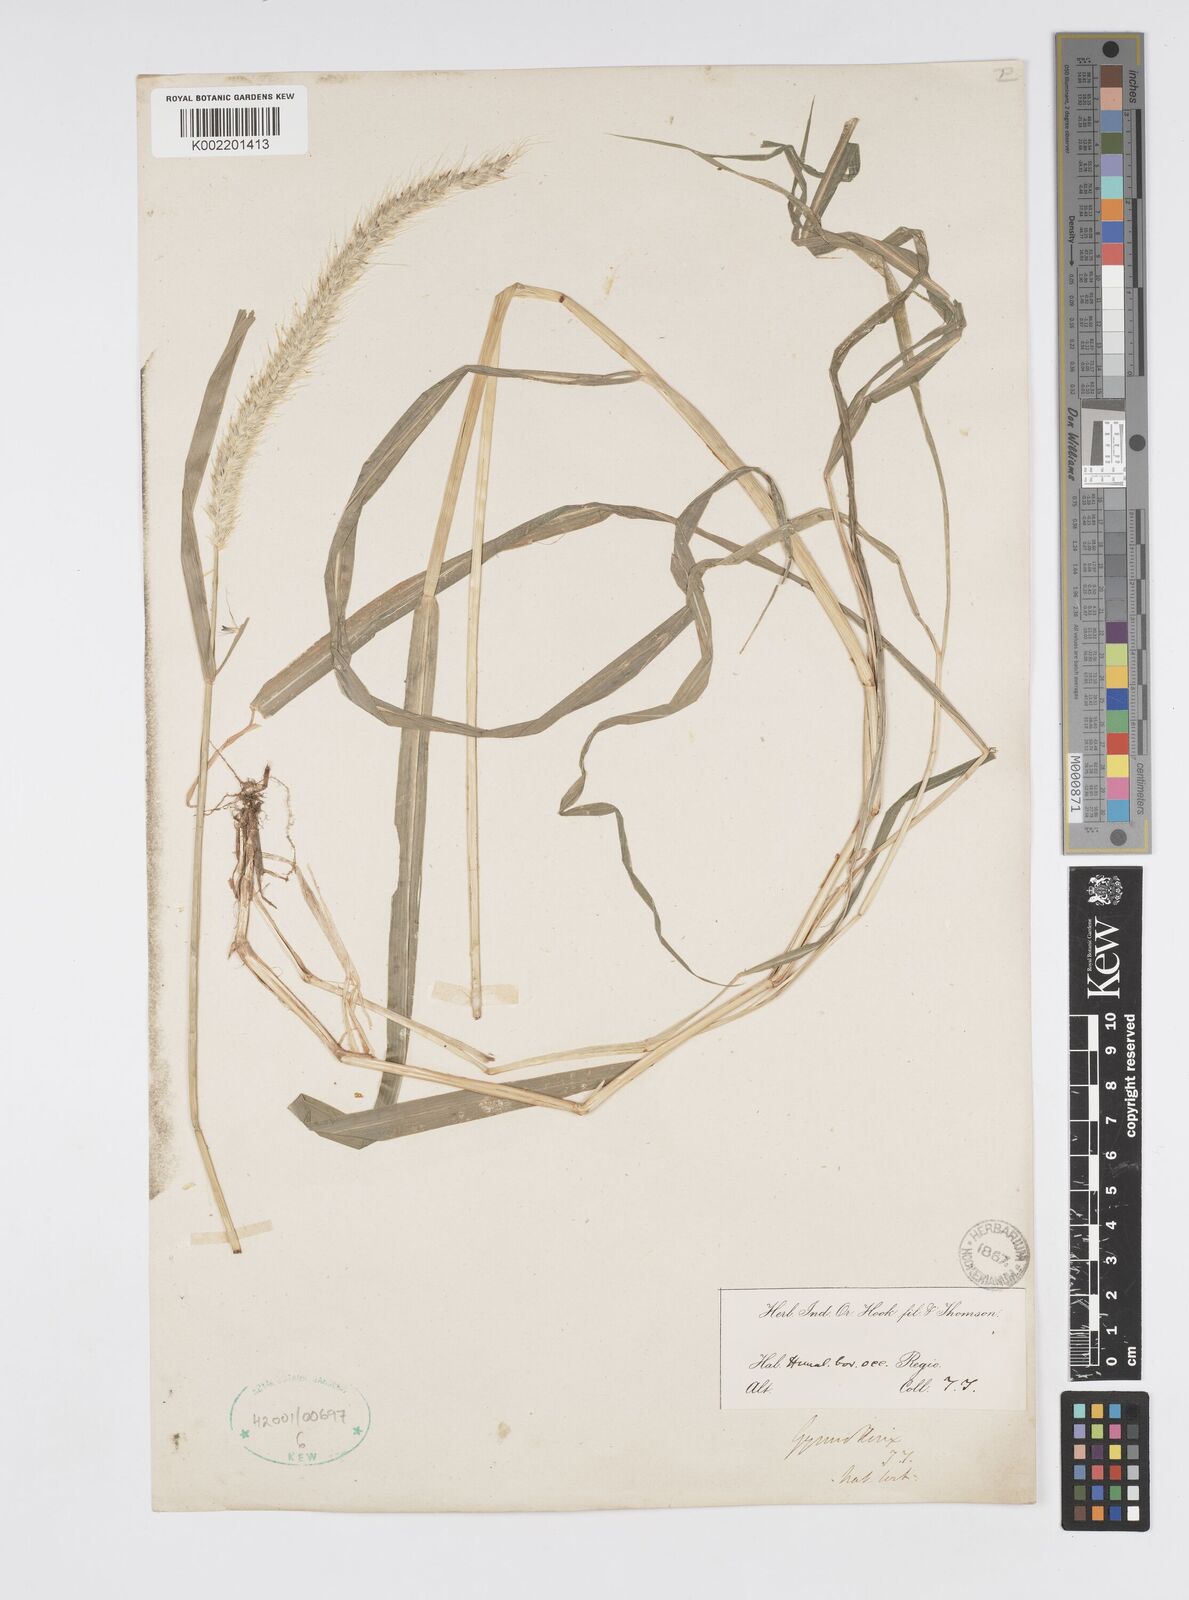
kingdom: Plantae
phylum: Tracheophyta
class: Liliopsida
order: Poales
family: Poaceae
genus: Cenchrus
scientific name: Cenchrus flaccidus
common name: Flaccid grass
